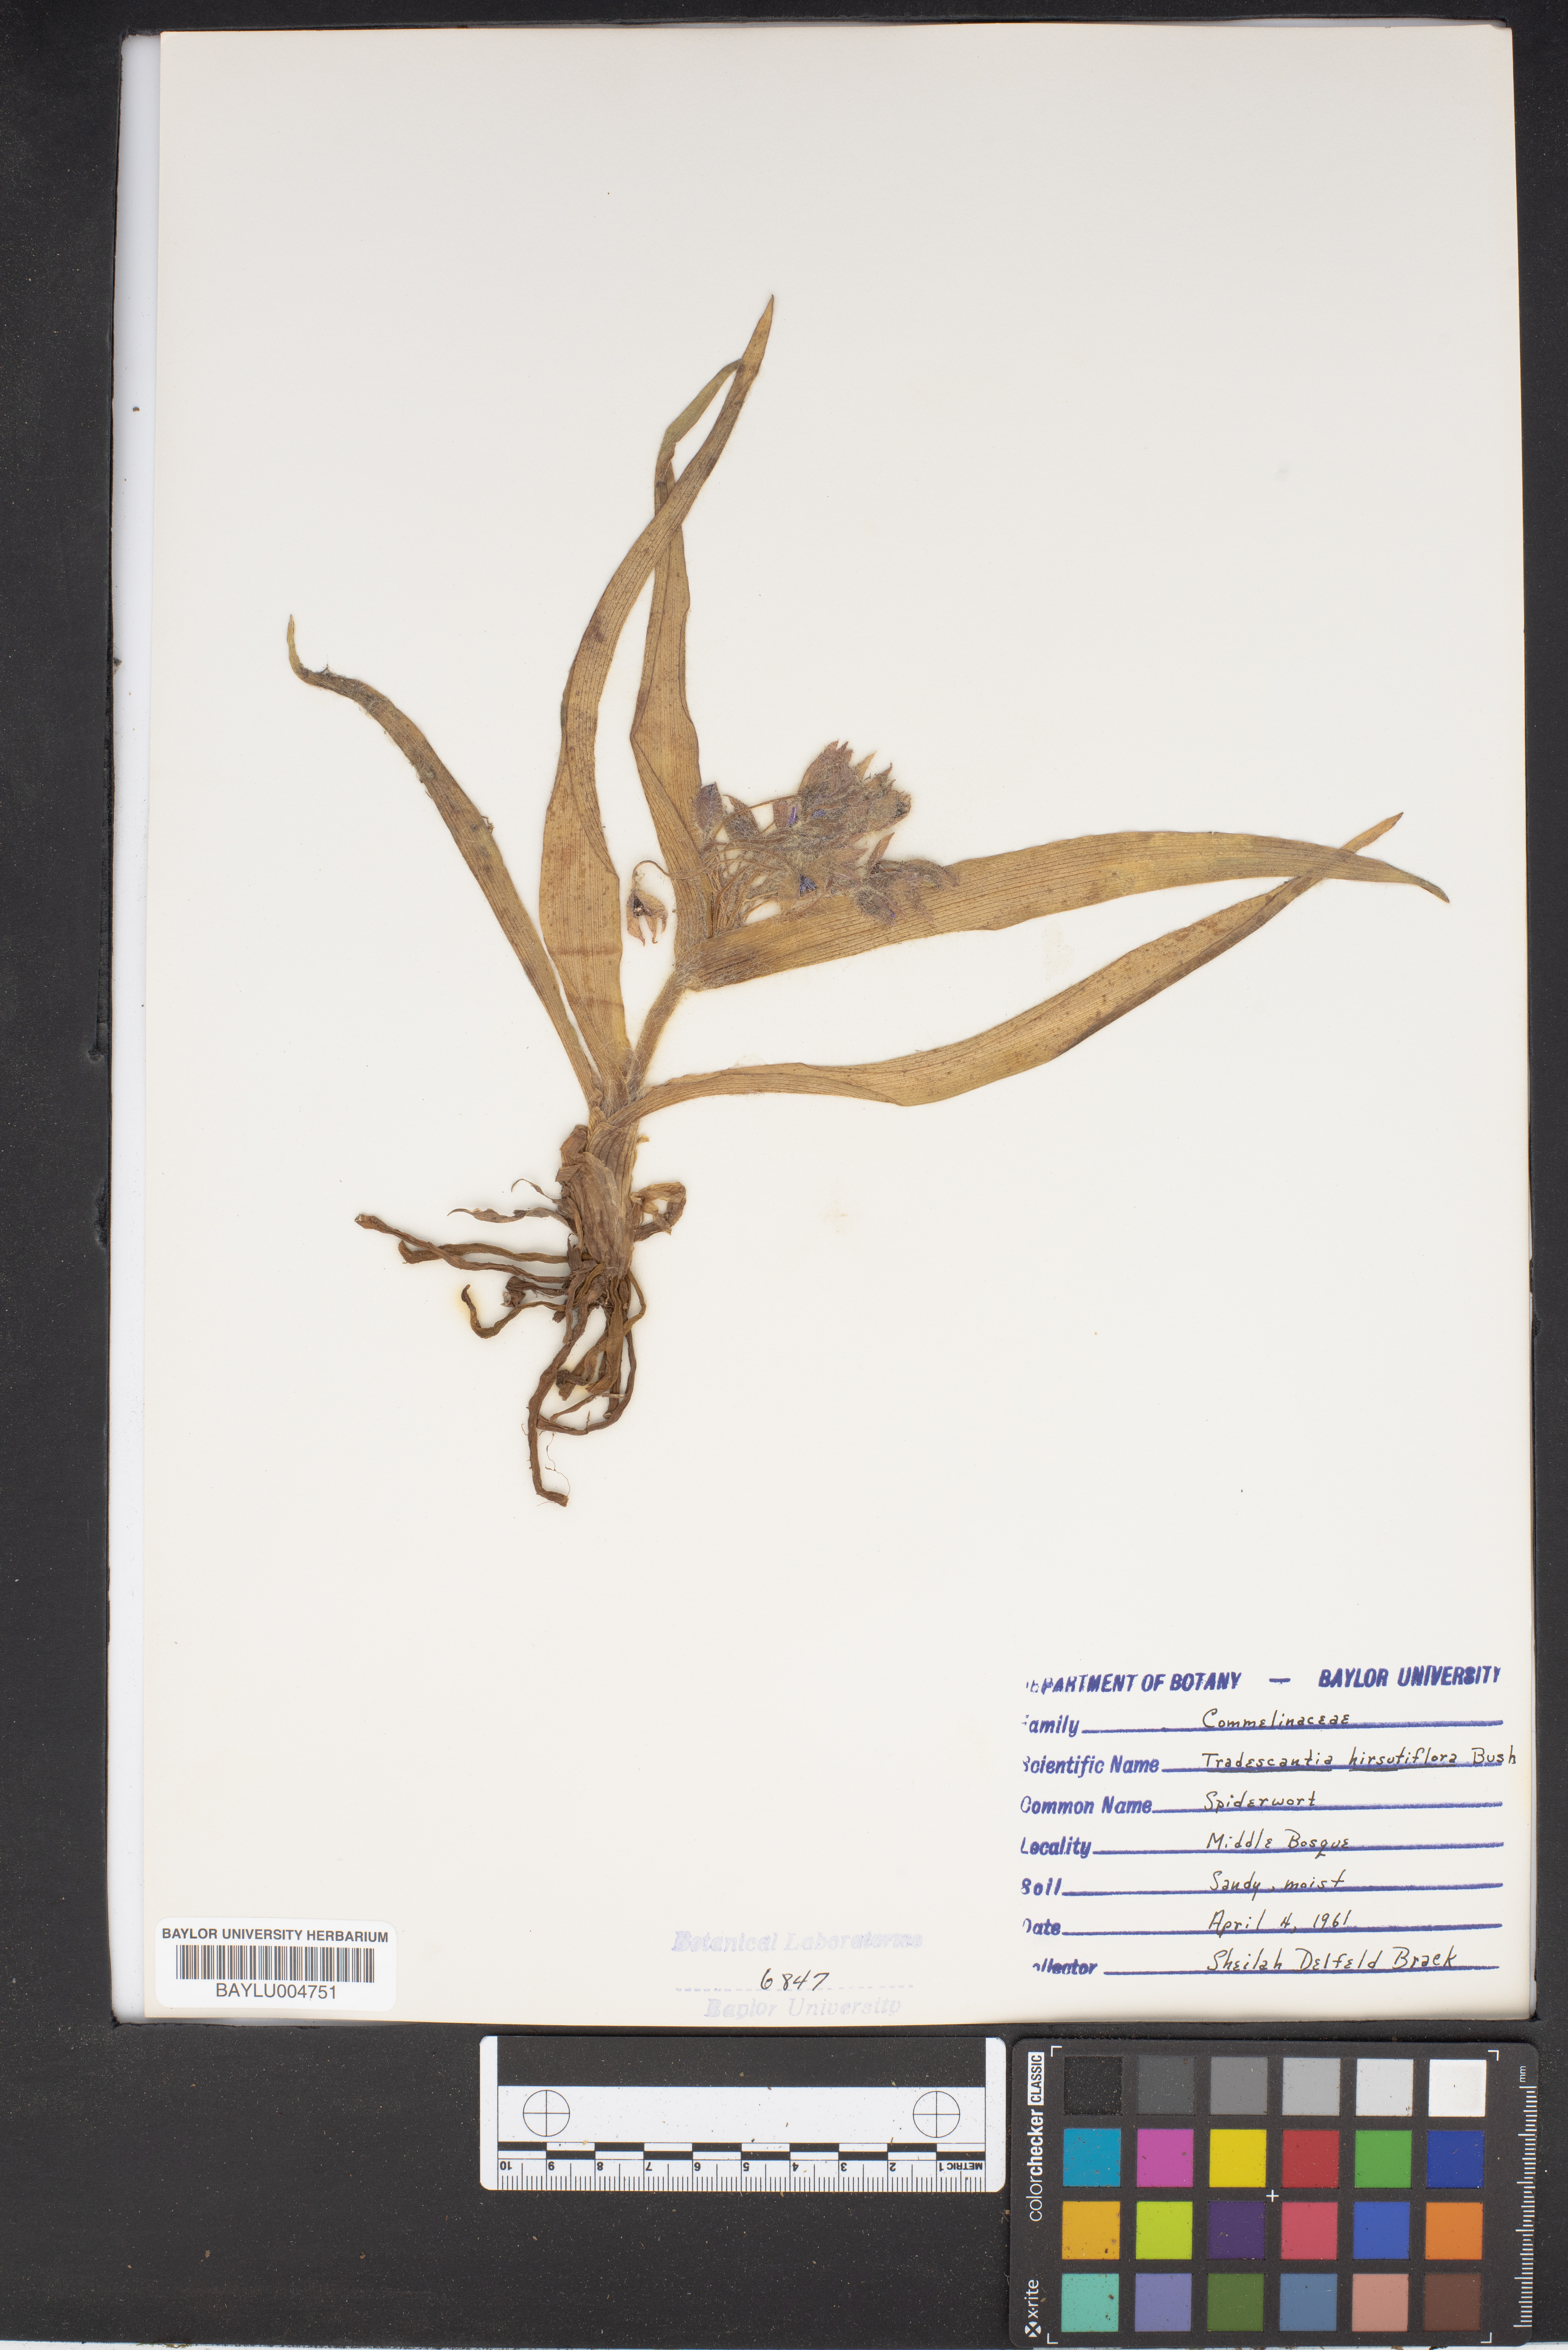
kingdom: Plantae
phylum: Tracheophyta
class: Liliopsida
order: Commelinales
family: Commelinaceae
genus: Tradescantia
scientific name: Tradescantia hirsutiflora
